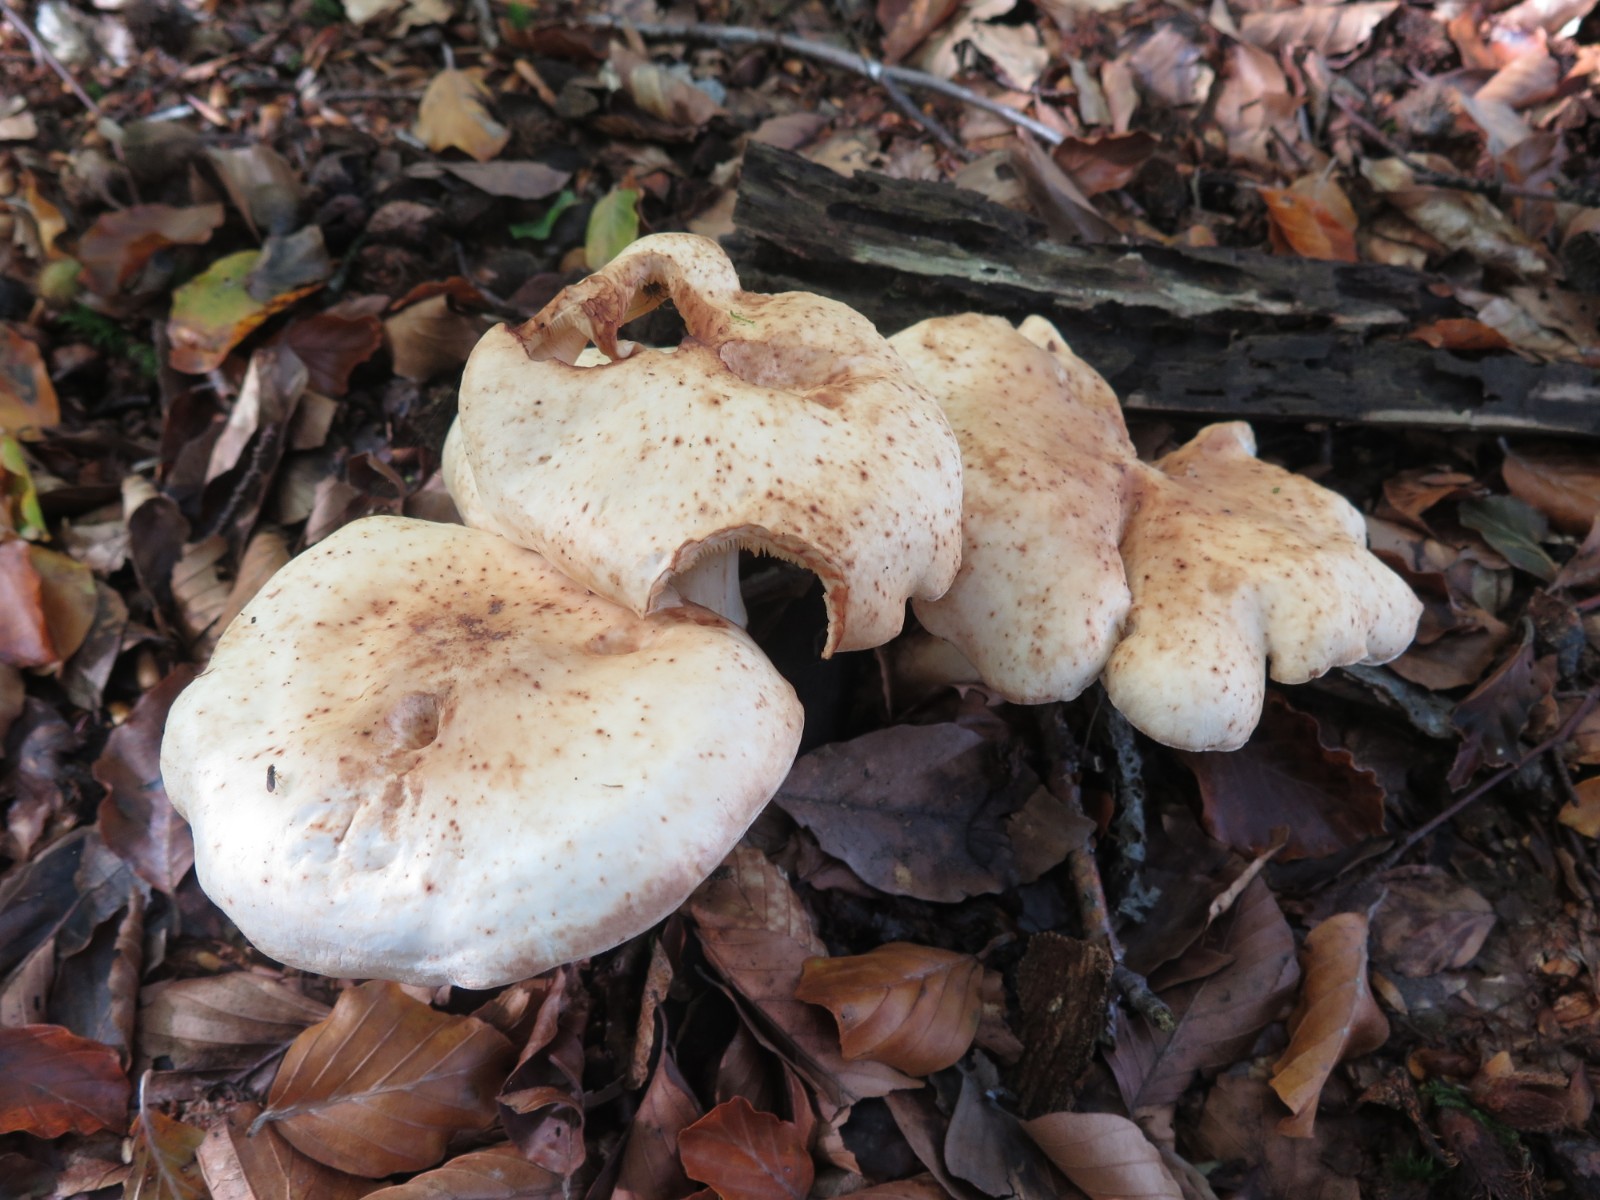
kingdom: Fungi
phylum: Basidiomycota
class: Agaricomycetes
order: Agaricales
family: Omphalotaceae
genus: Rhodocollybia
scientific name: Rhodocollybia maculata
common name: plettet fladhat
